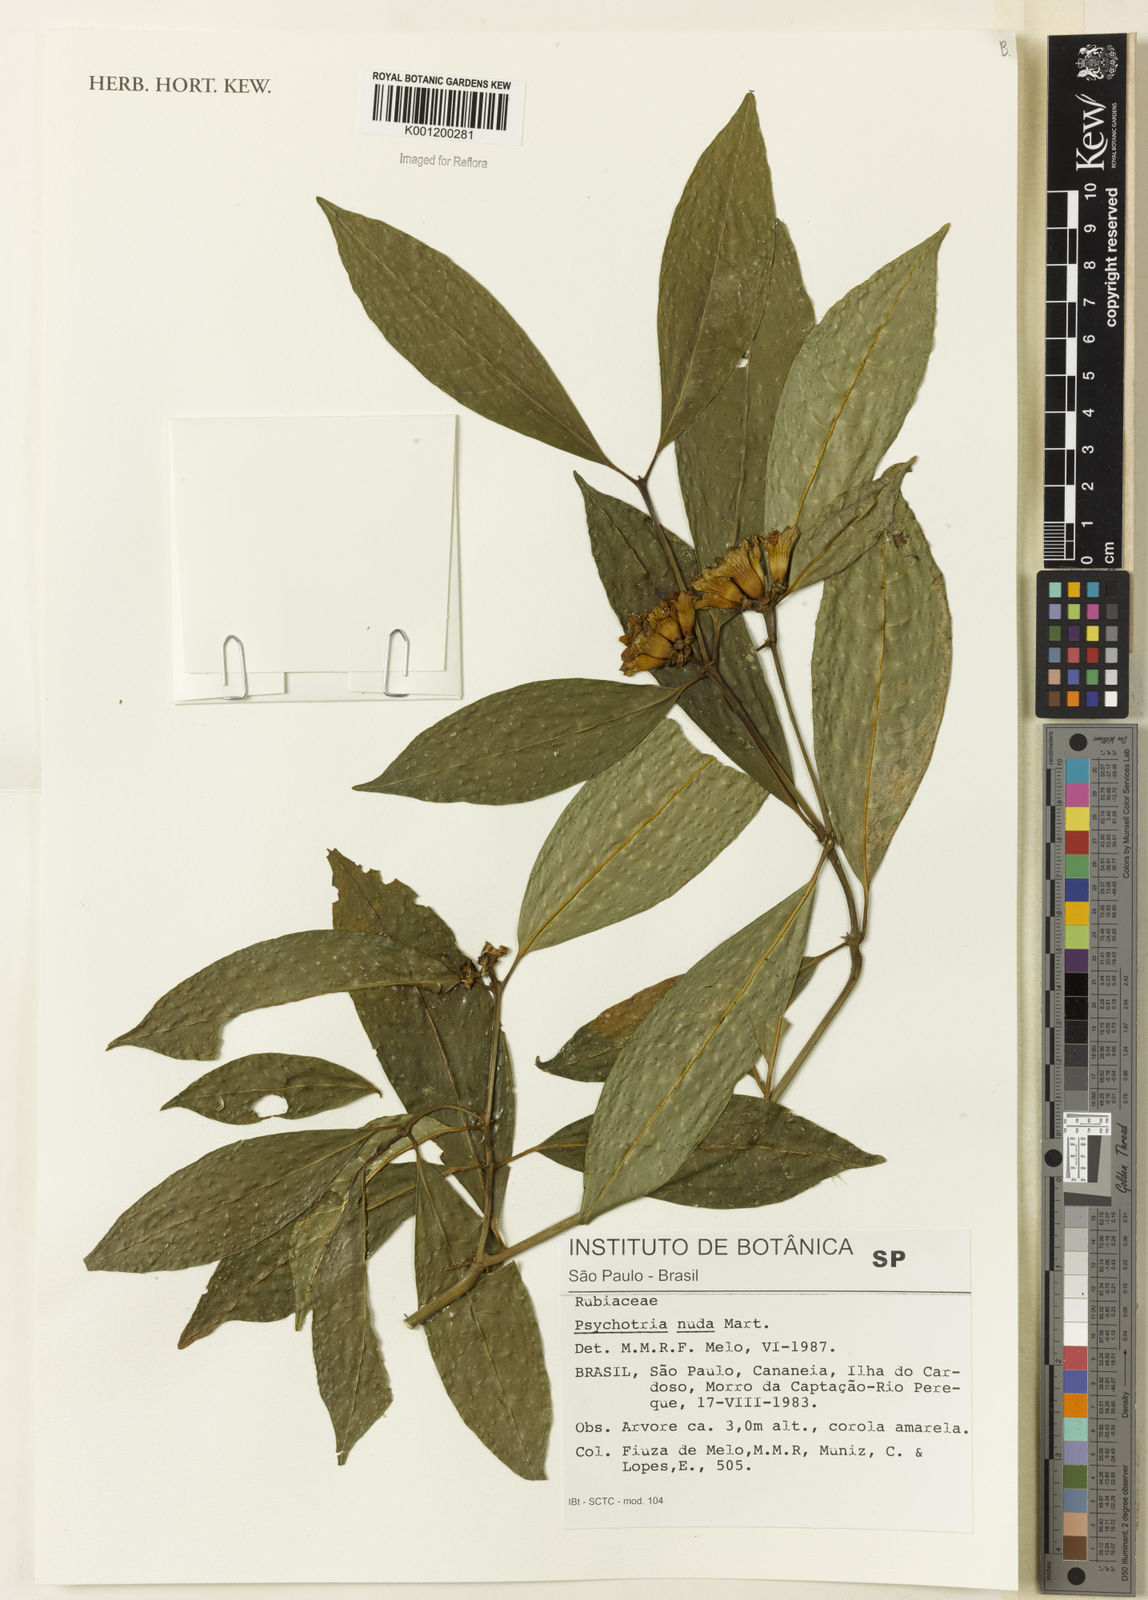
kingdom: Plantae
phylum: Tracheophyta
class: Magnoliopsida
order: Gentianales
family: Rubiaceae
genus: Psychotria
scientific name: Psychotria nuda
